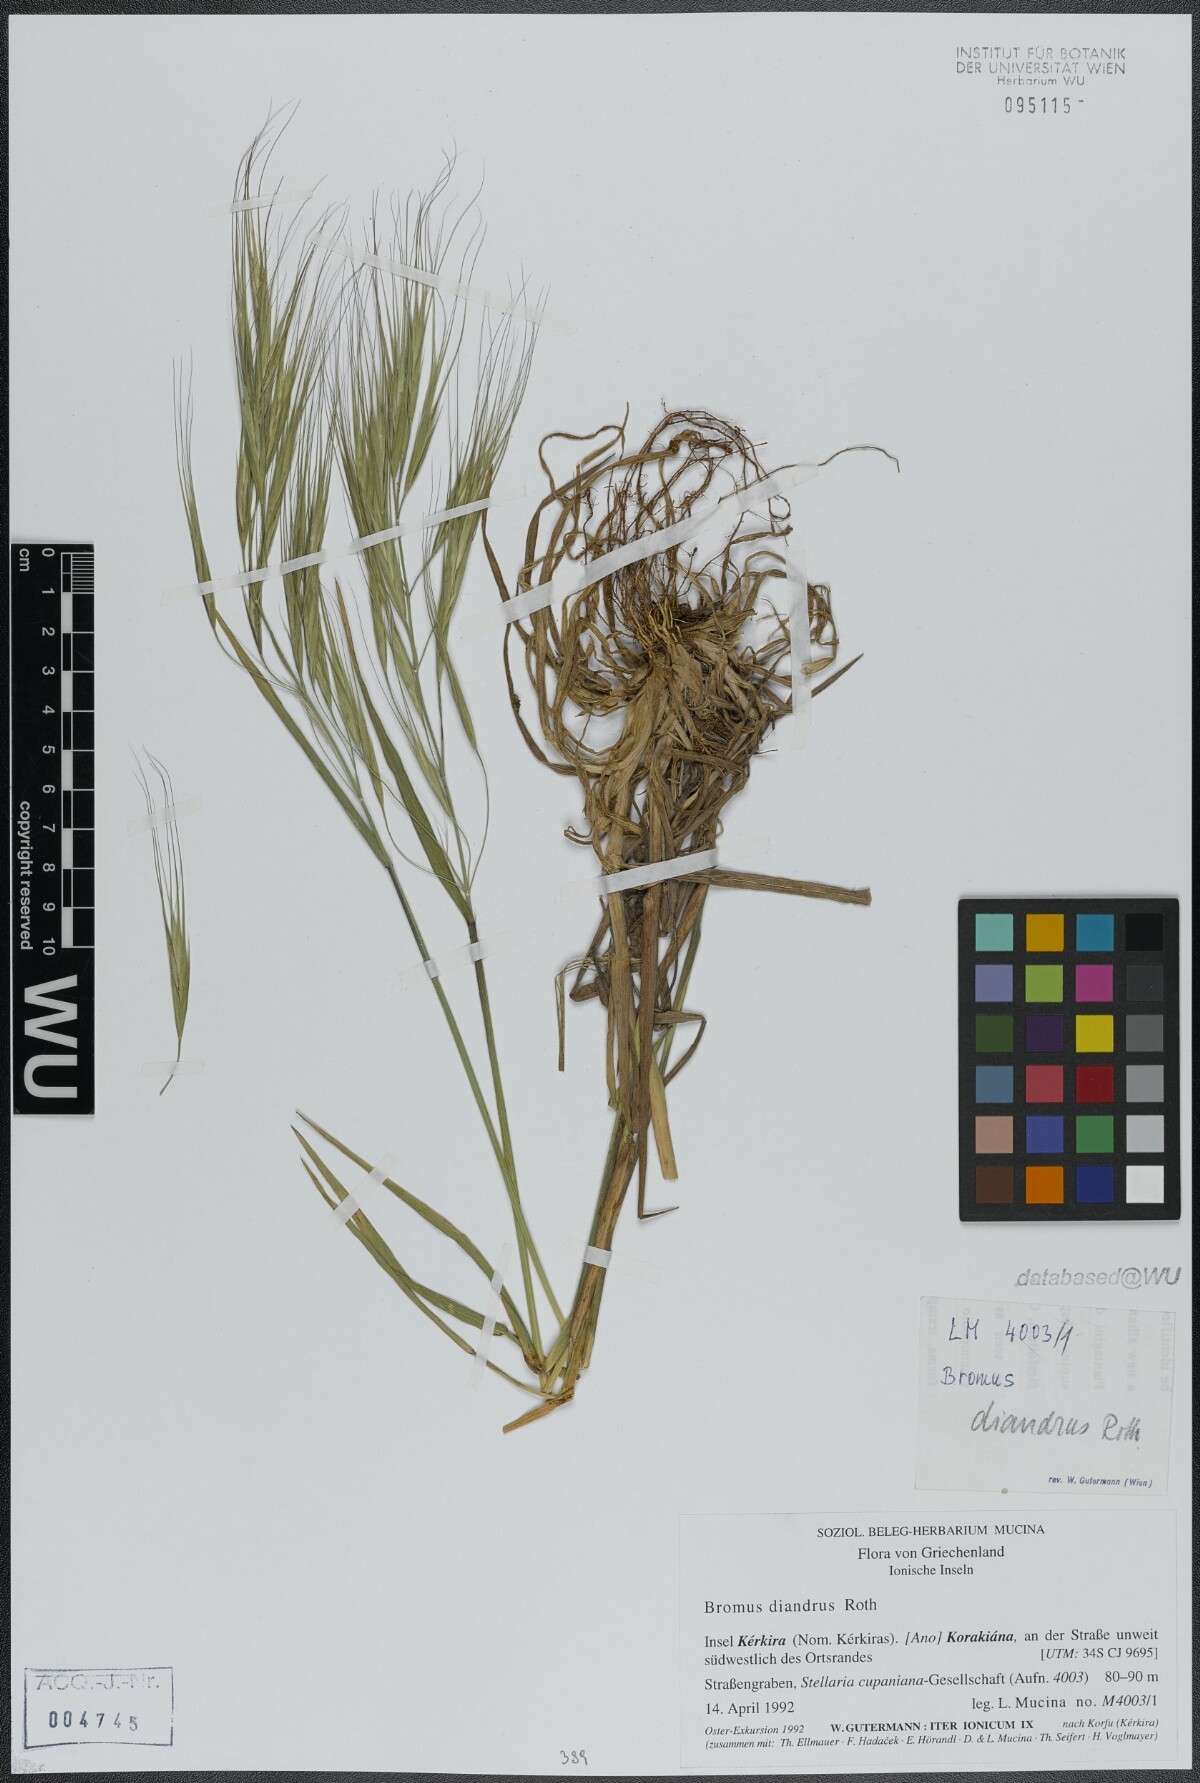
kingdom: Plantae
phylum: Tracheophyta
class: Liliopsida
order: Poales
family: Poaceae
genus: Bromus
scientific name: Bromus diandrus
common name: Ripgut brome
